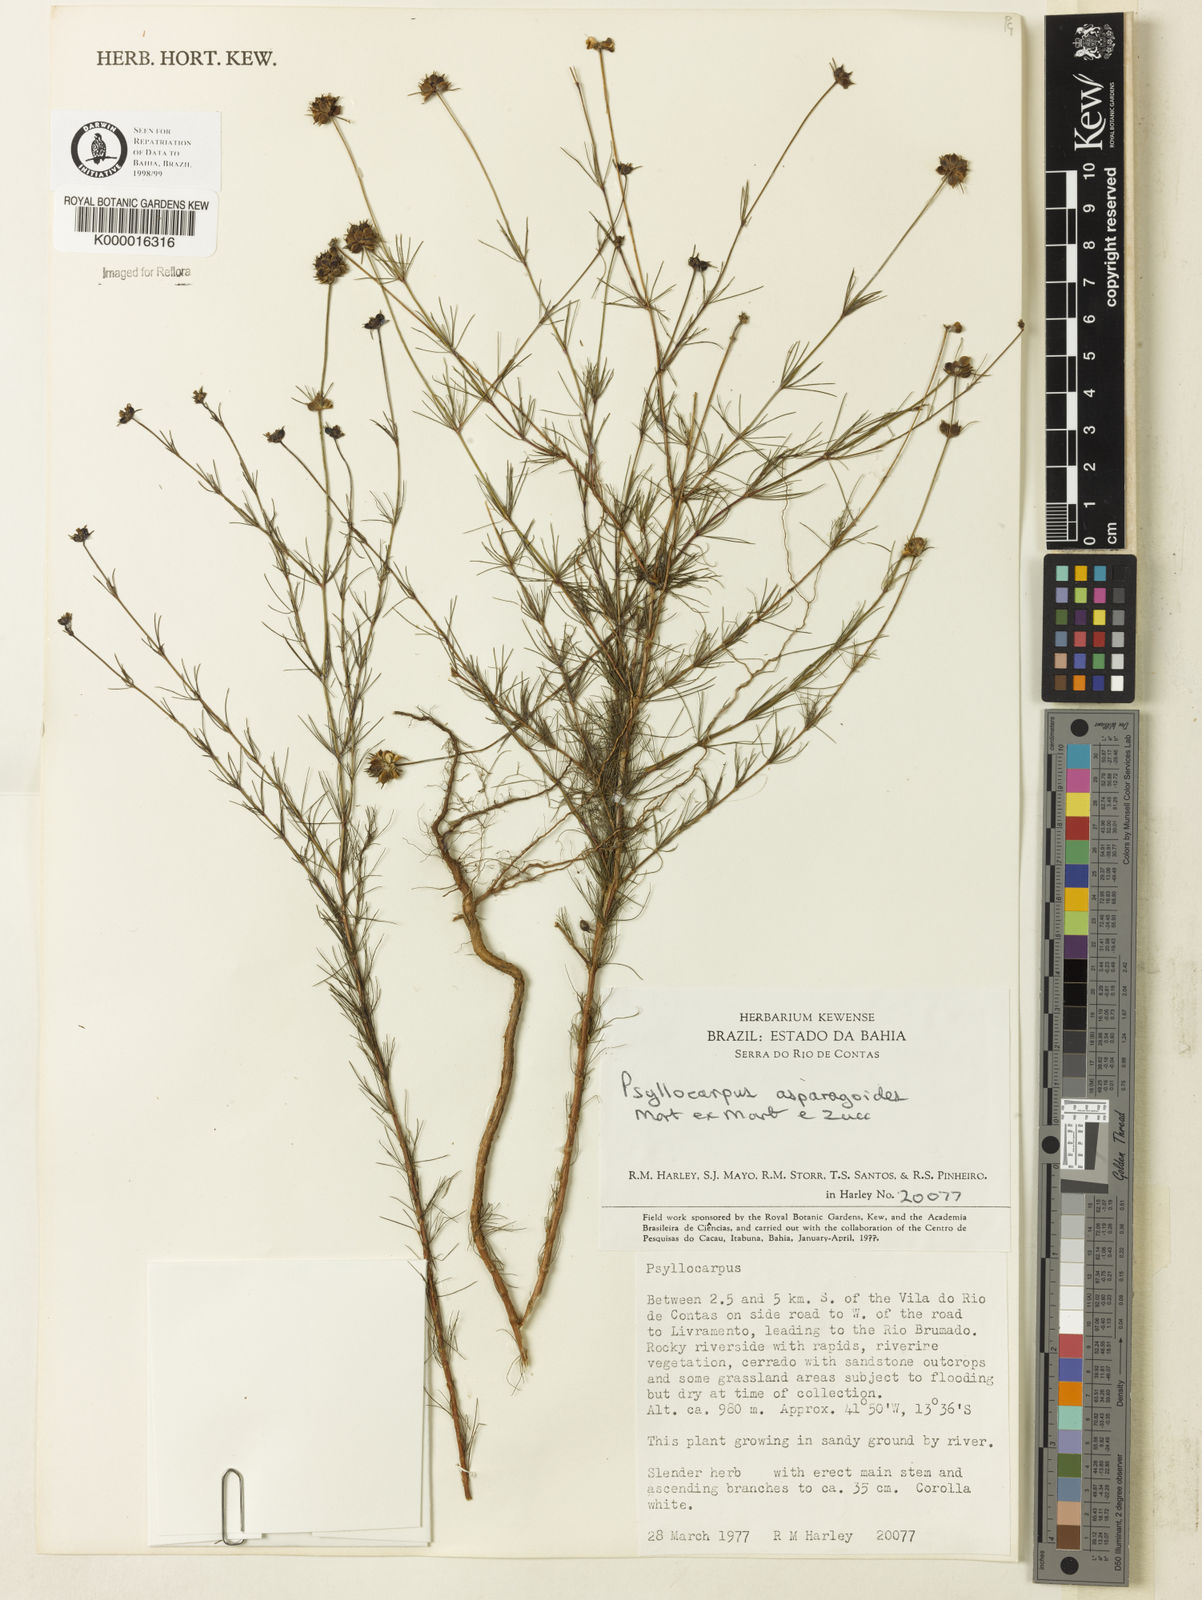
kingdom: Plantae
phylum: Tracheophyta
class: Magnoliopsida
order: Gentianales
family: Rubiaceae
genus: Psyllocarpus
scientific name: Psyllocarpus asparagoides
